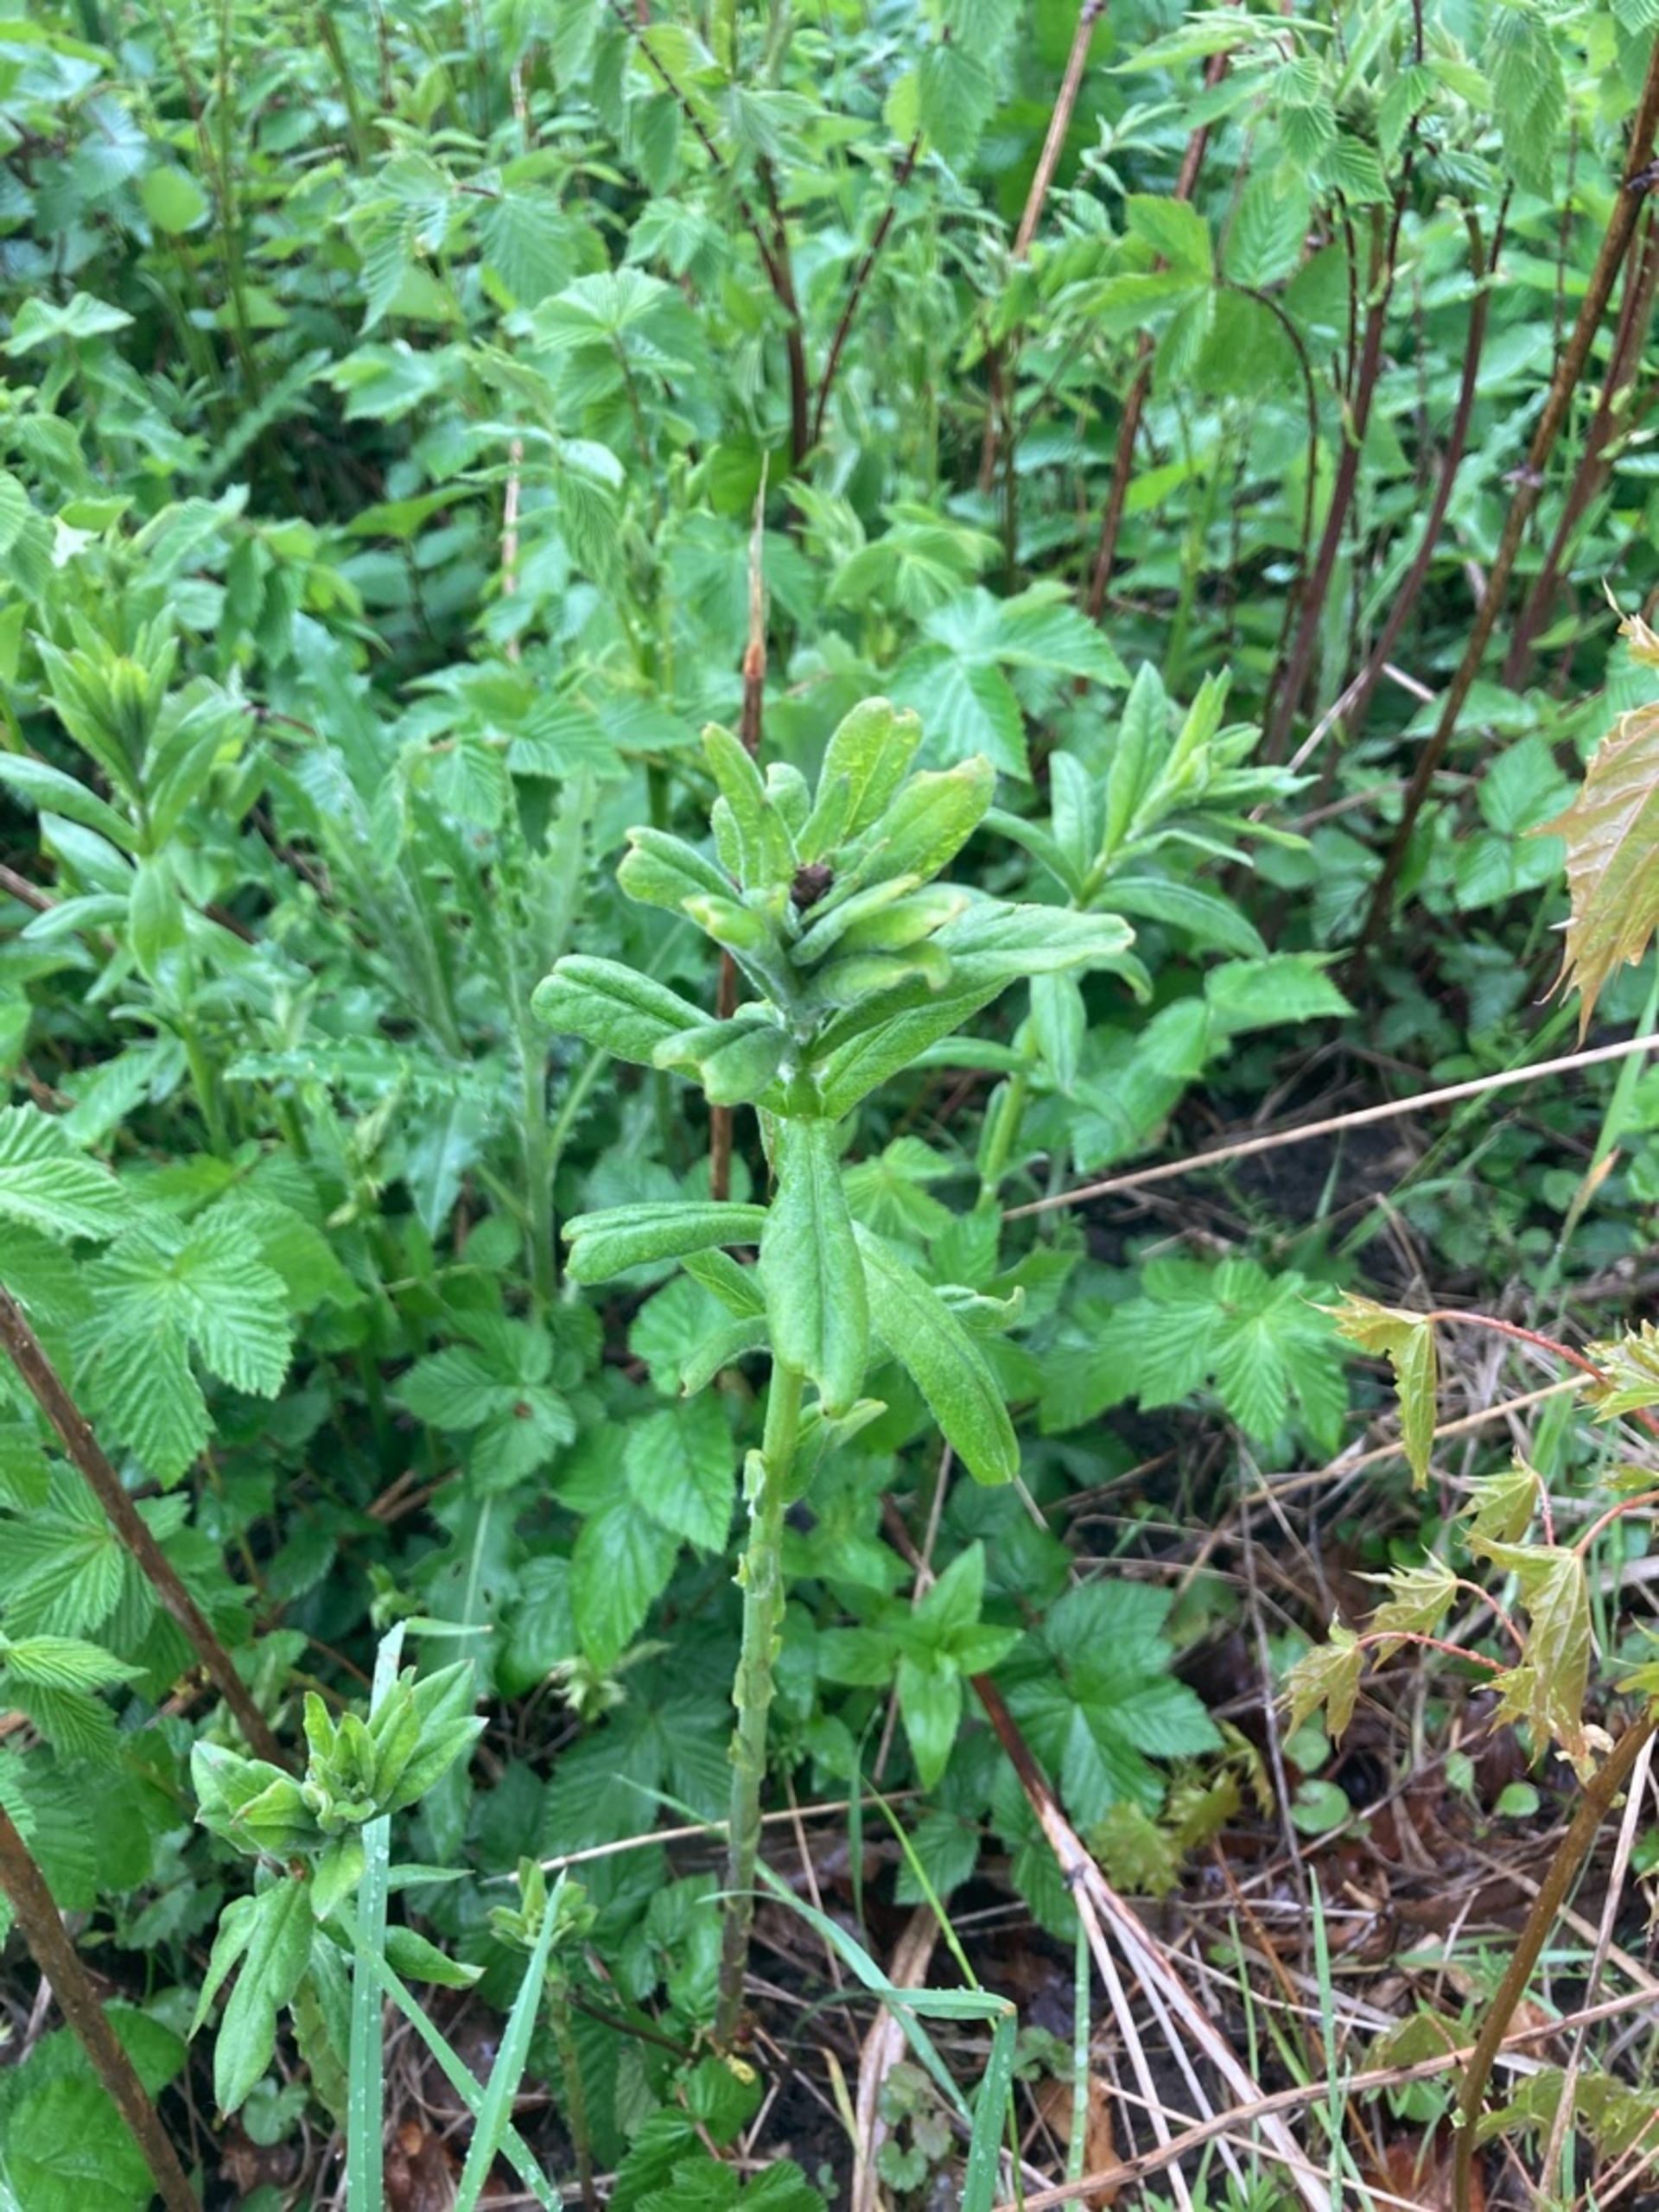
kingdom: Plantae
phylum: Tracheophyta
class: Magnoliopsida
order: Ericales
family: Primulaceae
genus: Lysimachia
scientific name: Lysimachia vulgaris
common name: Almindelig fredløs
